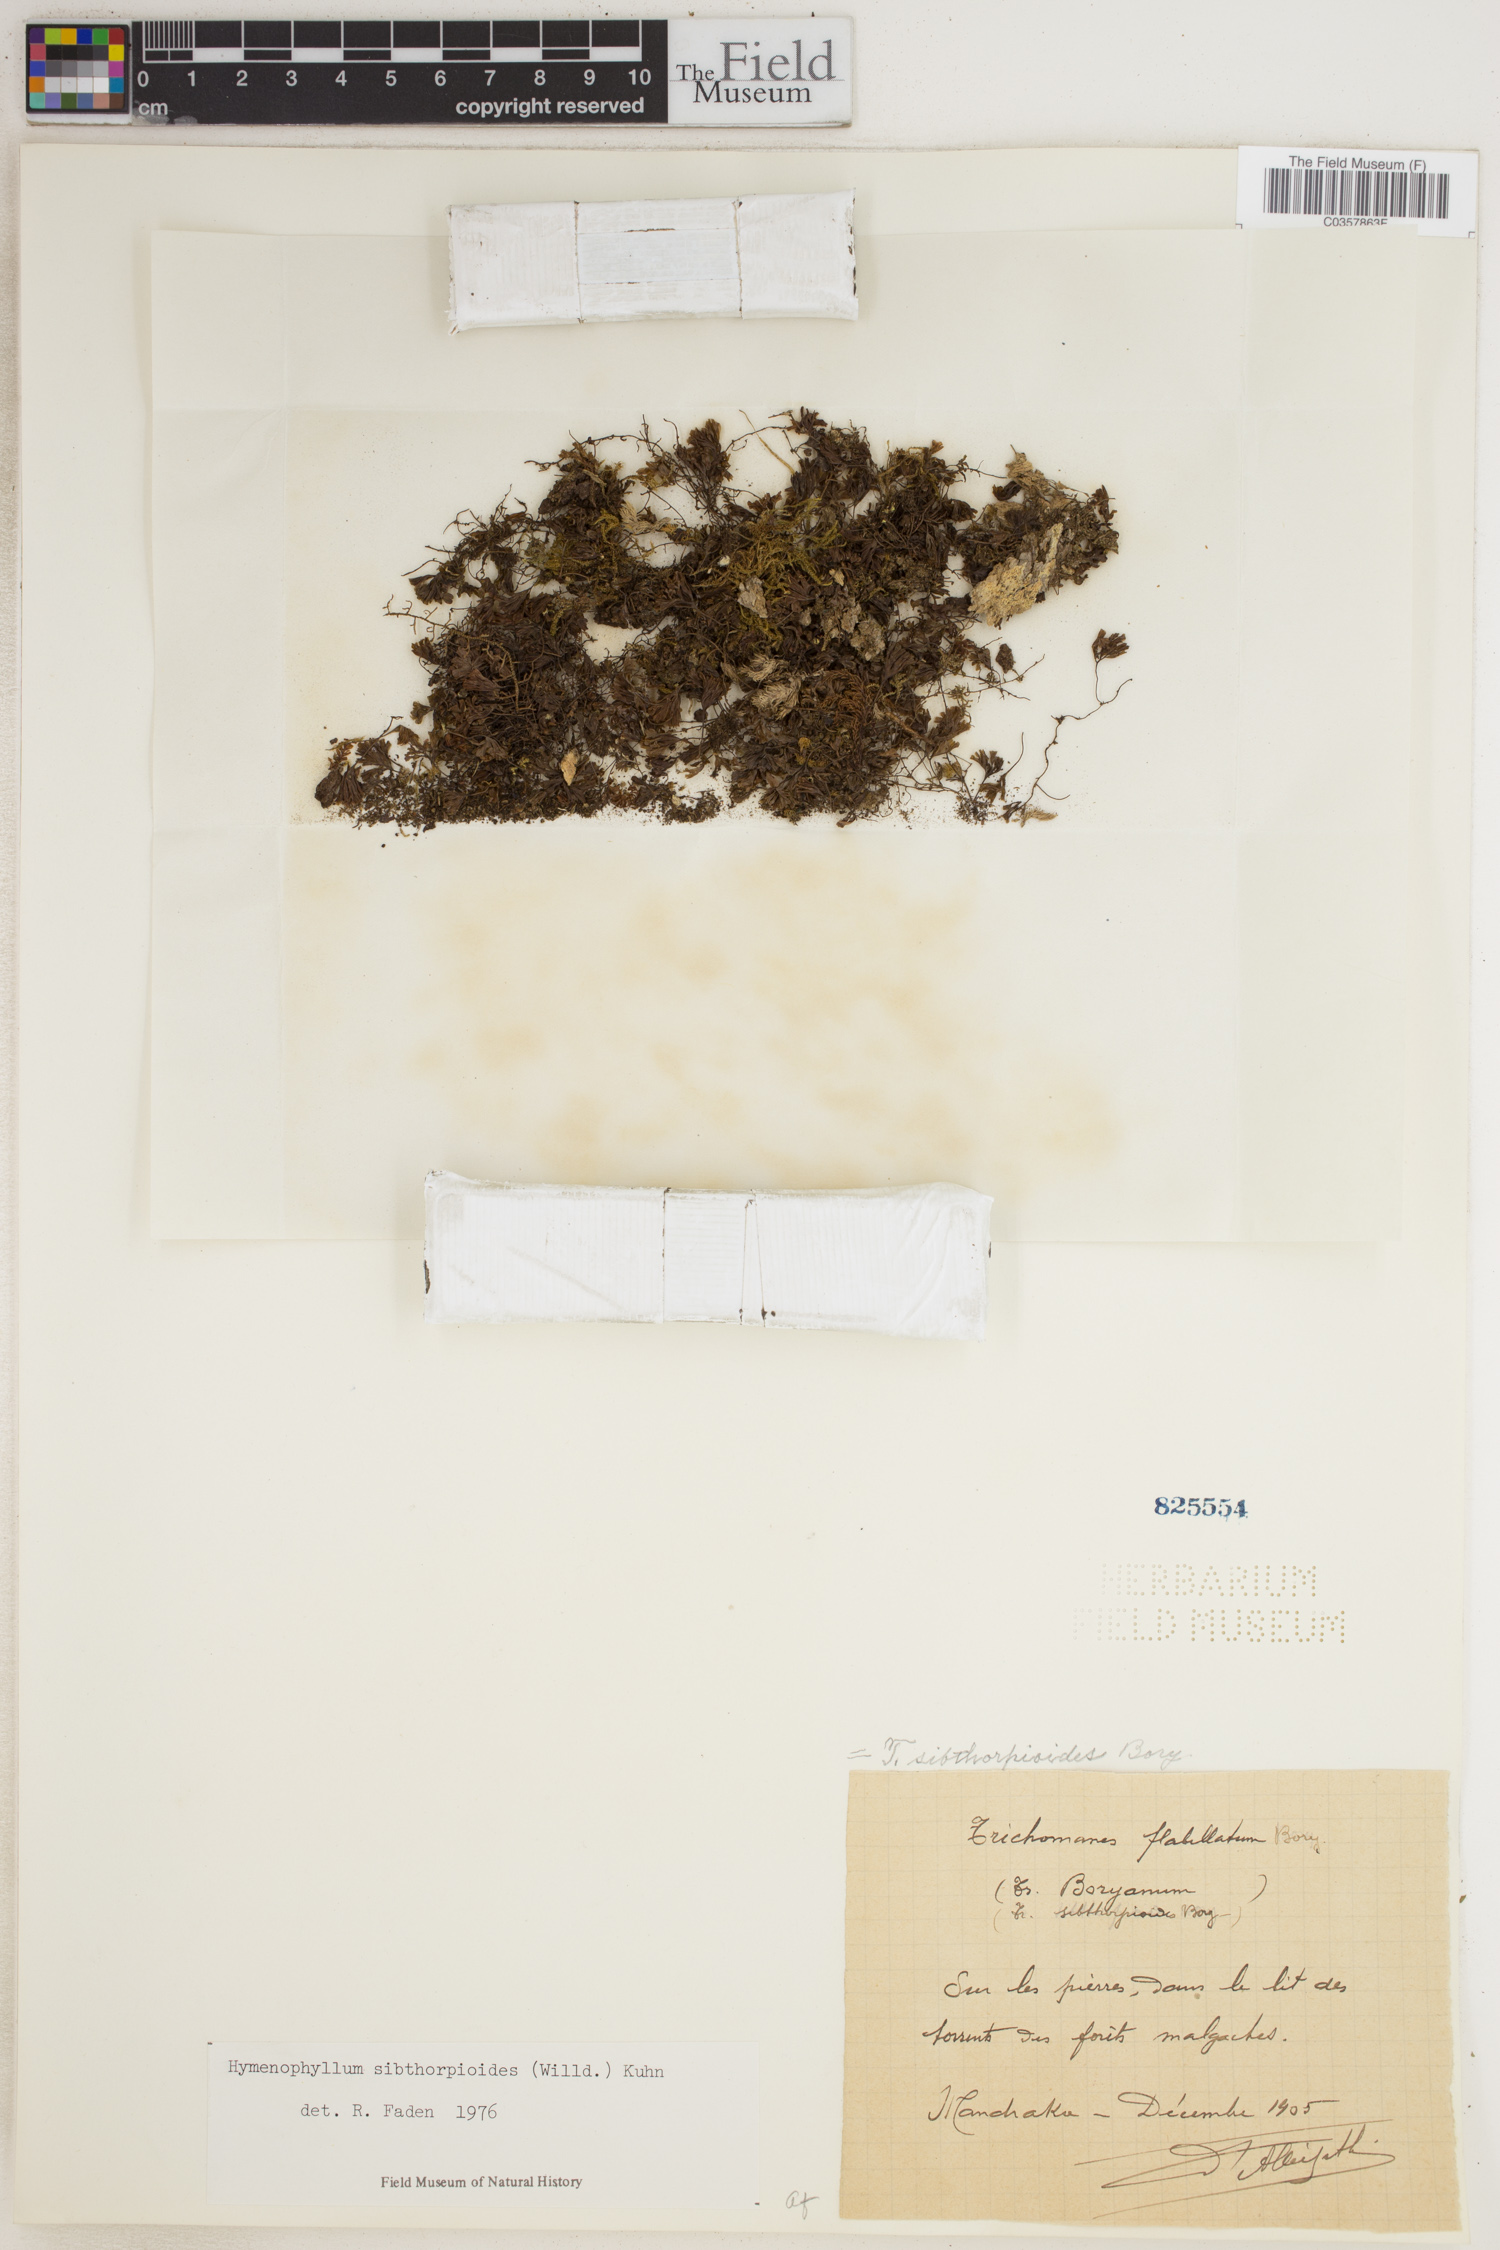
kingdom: Plantae
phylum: Tracheophyta
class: Polypodiopsida
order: Hymenophyllales
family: Hymenophyllaceae
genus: Hymenophyllum
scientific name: Hymenophyllum sibthorpioides
